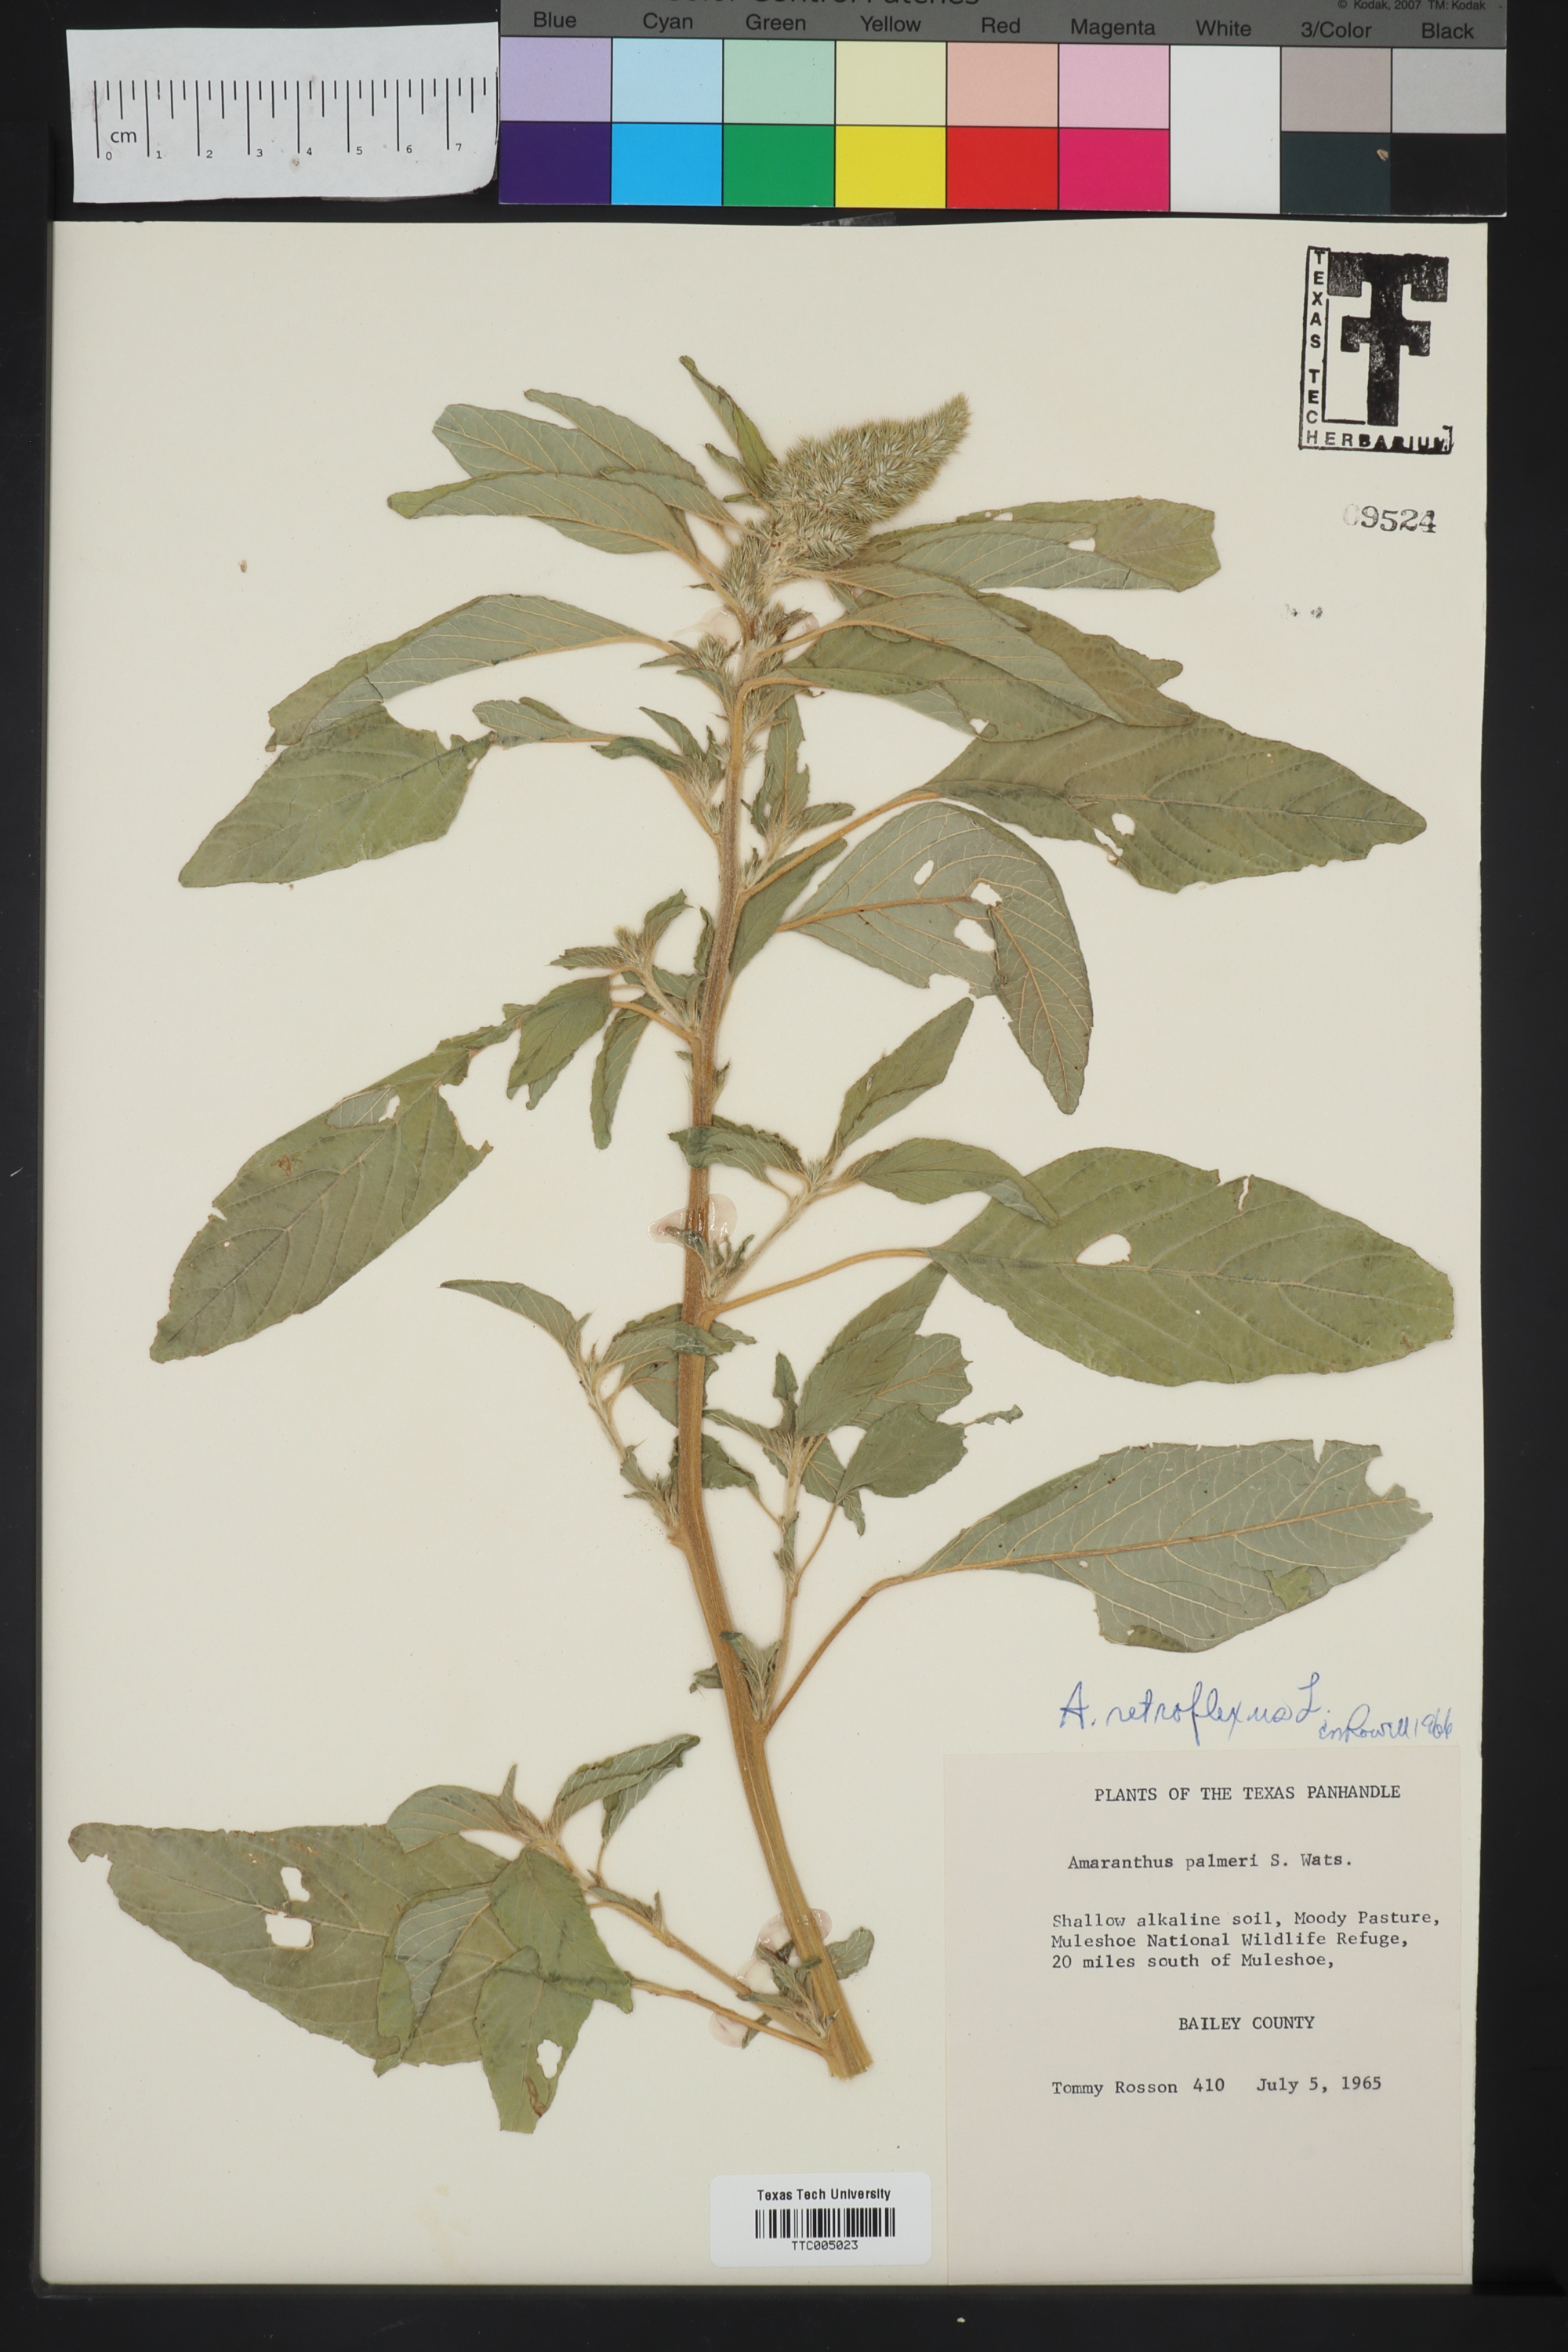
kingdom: Plantae
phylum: Tracheophyta
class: Magnoliopsida
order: Caryophyllales
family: Amaranthaceae
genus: Amaranthus
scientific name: Amaranthus retroflexus
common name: Redroot amaranth
